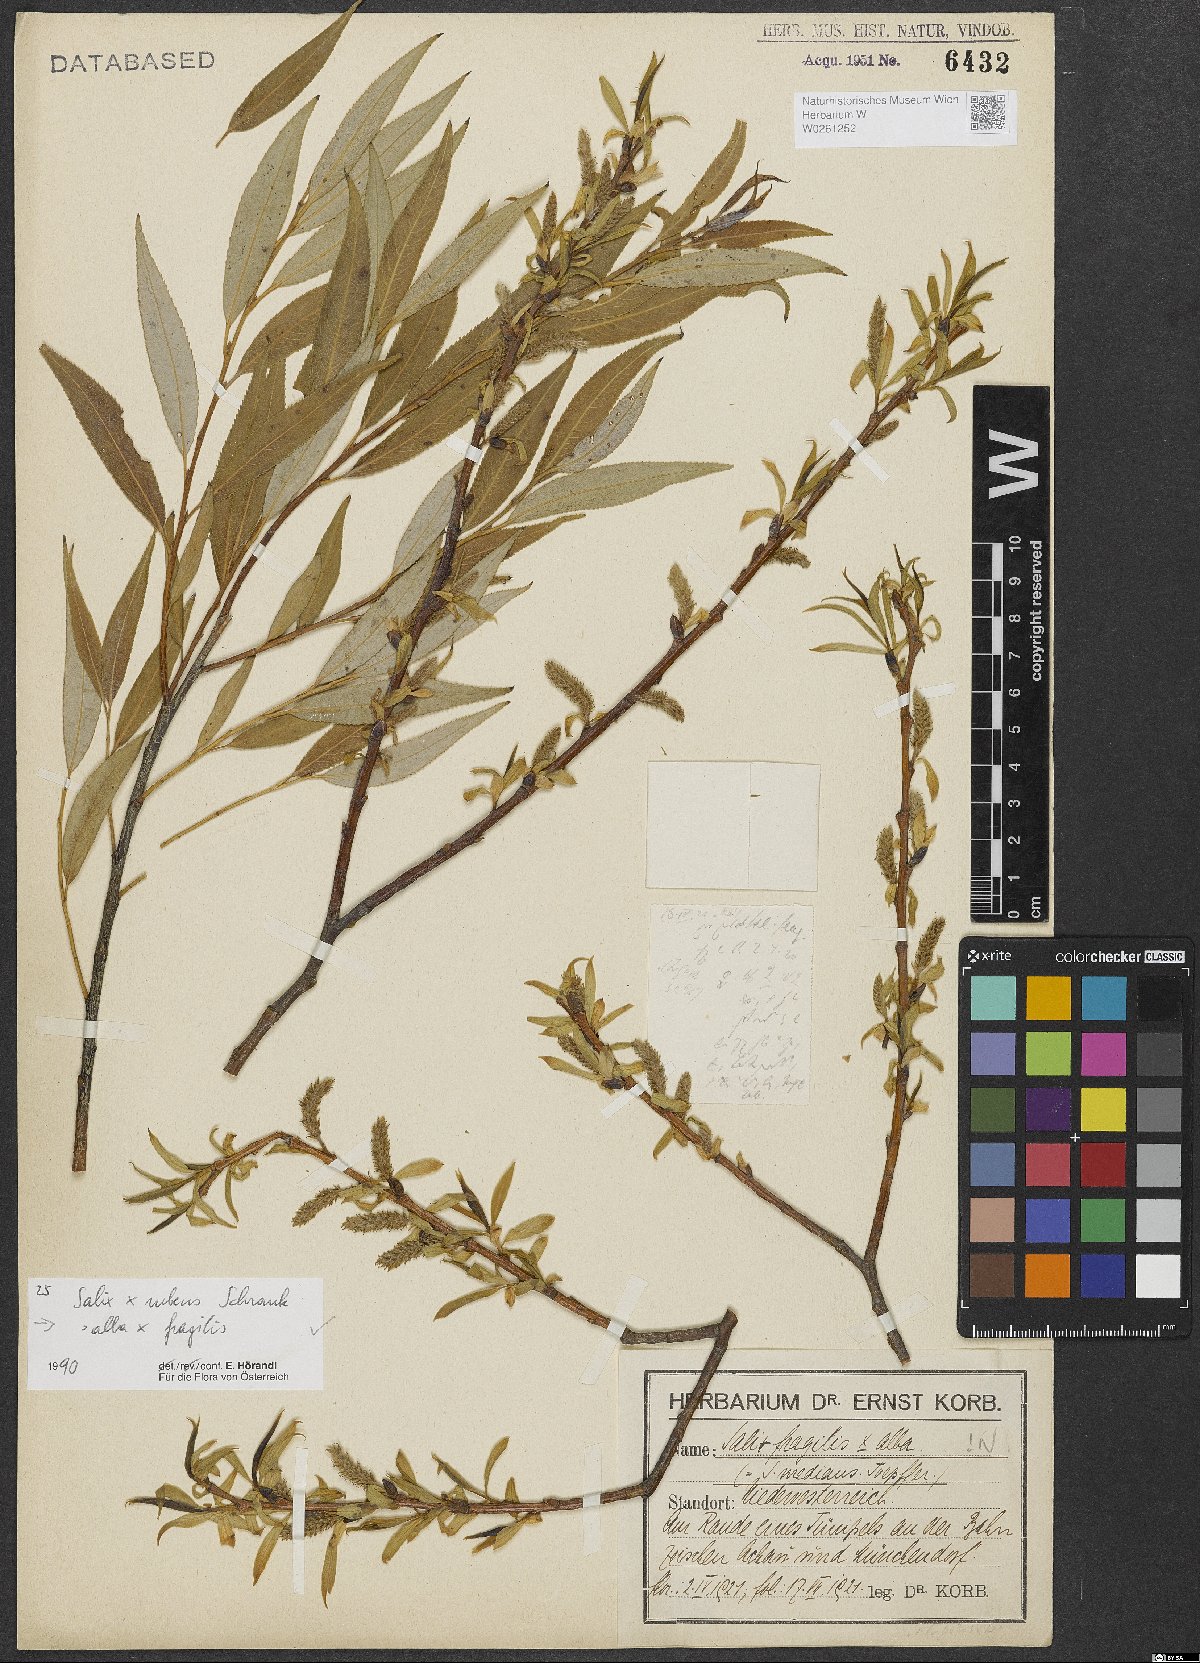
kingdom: Plantae
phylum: Tracheophyta
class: Magnoliopsida
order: Malpighiales
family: Salicaceae
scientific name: Salicaceae
